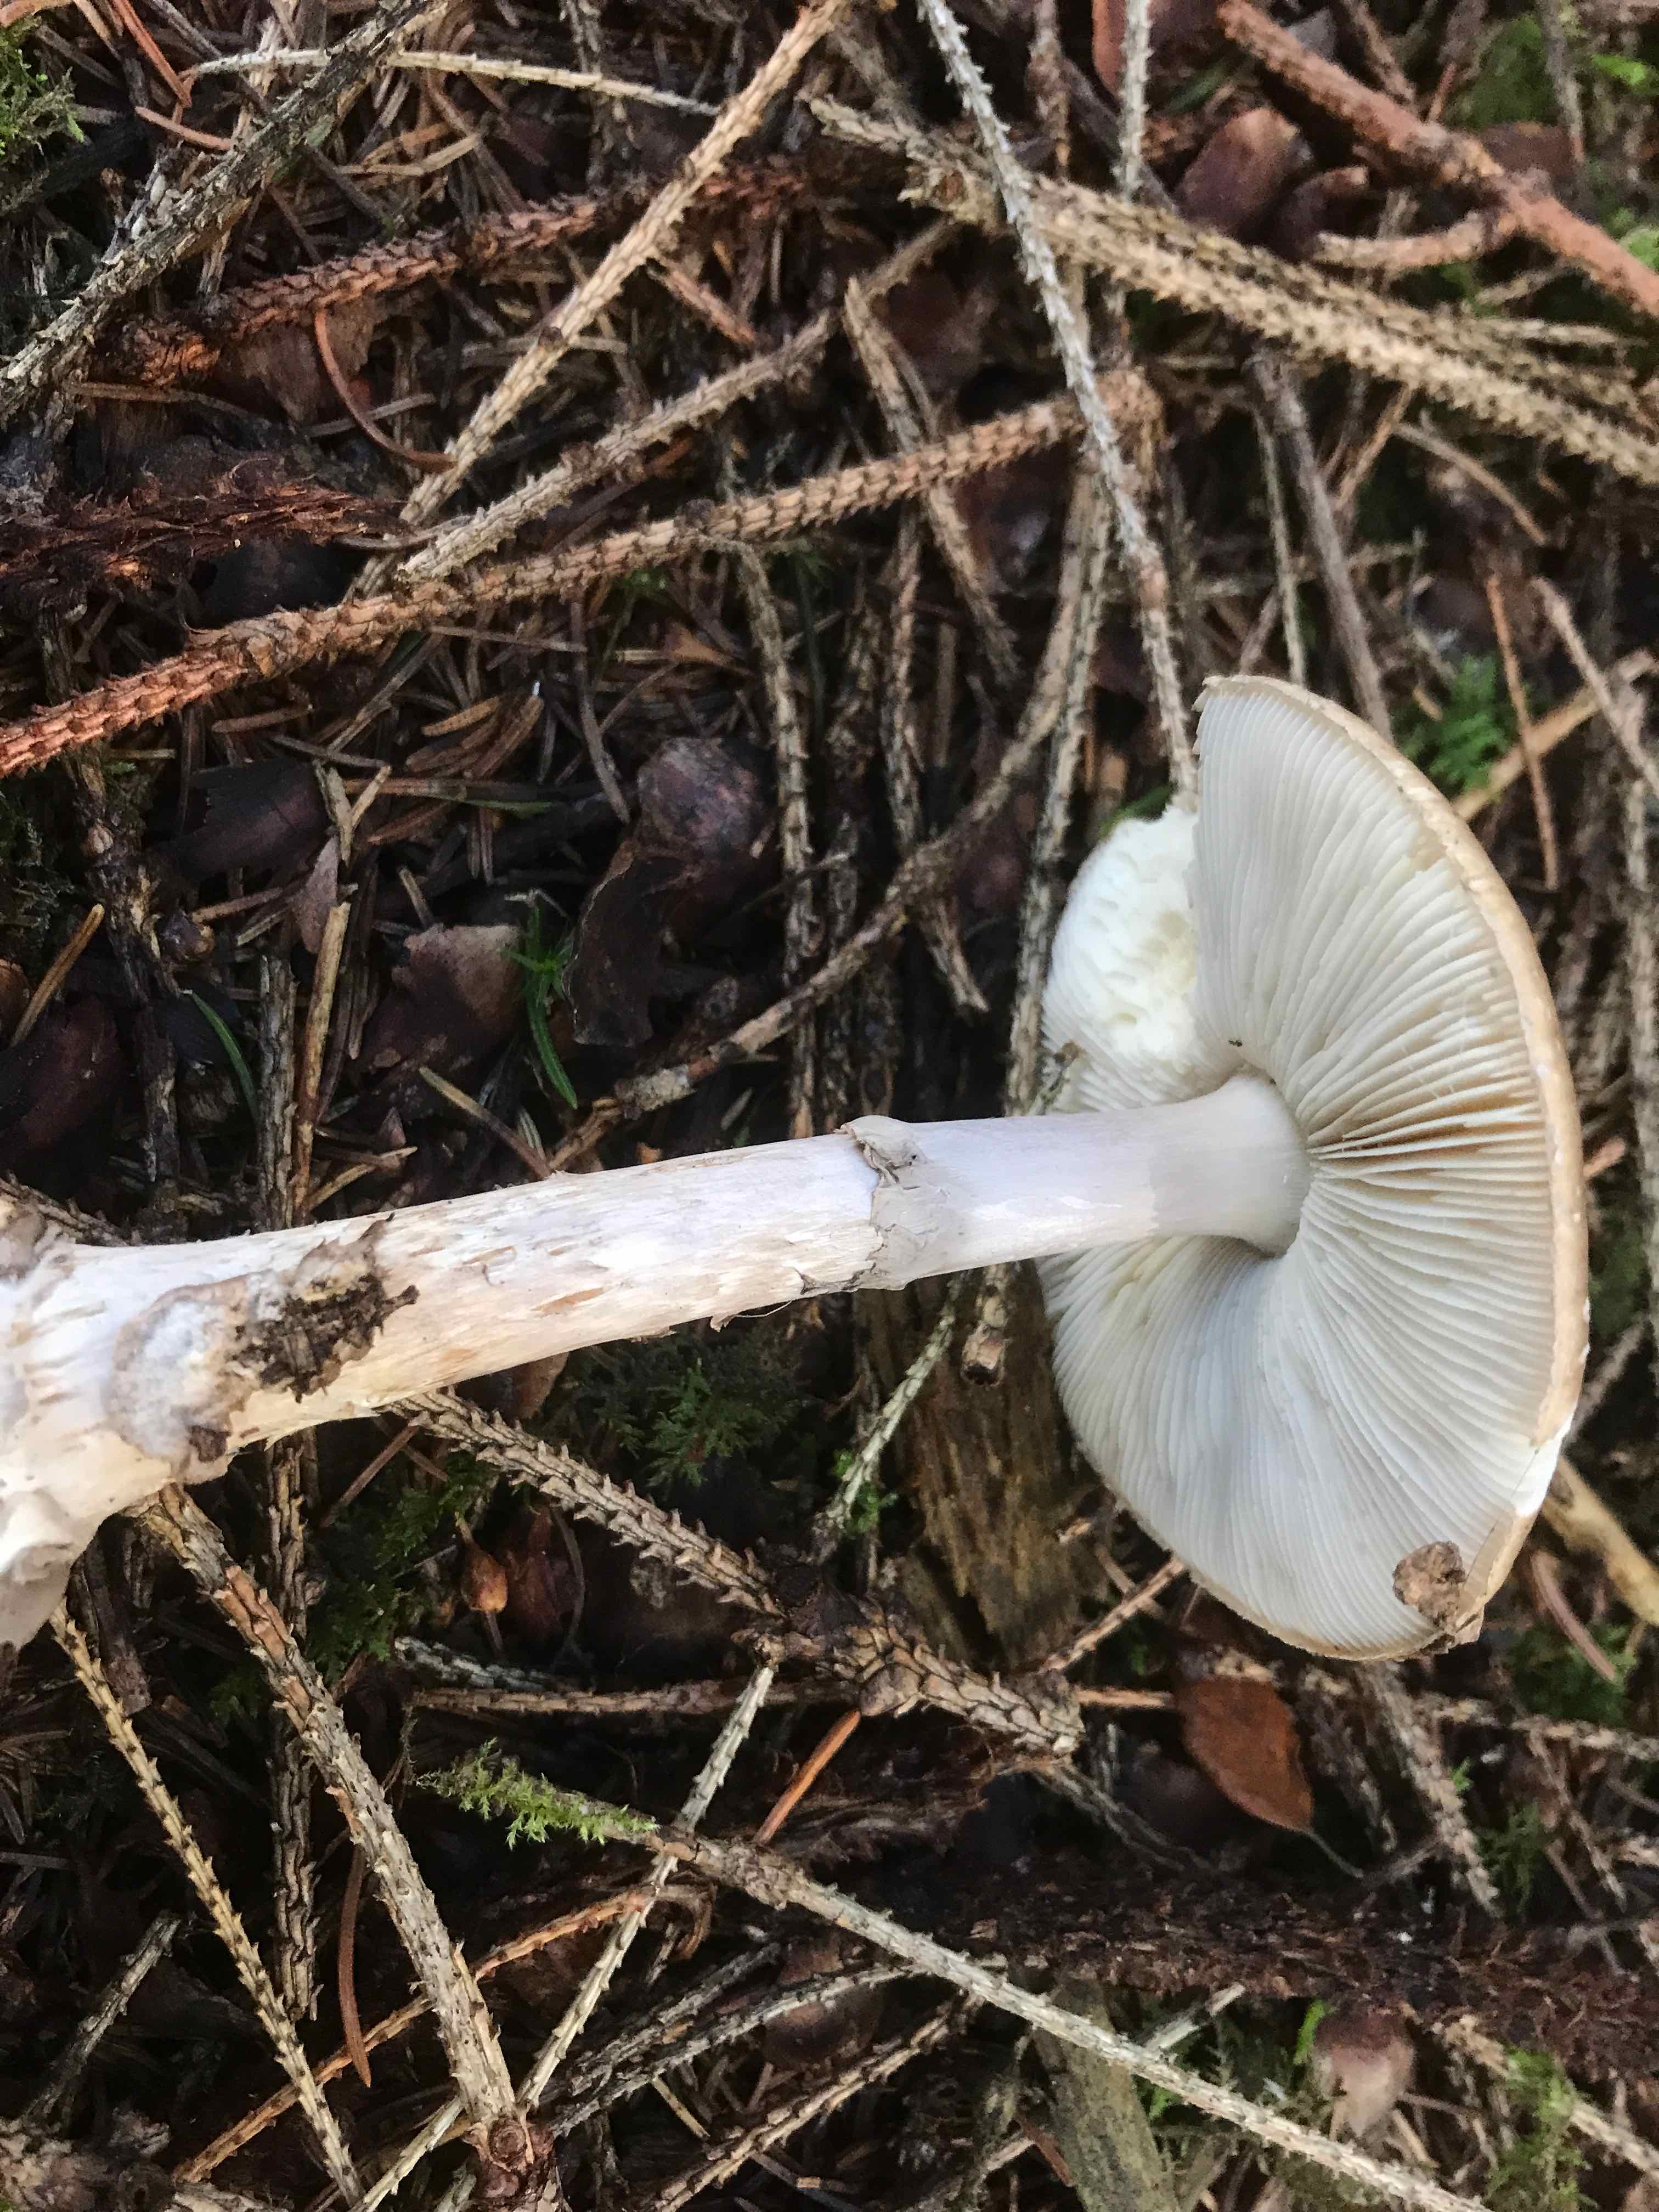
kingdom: Fungi
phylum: Basidiomycota
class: Agaricomycetes
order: Agaricales
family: Amanitaceae
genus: Amanita
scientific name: Amanita porphyria
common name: porfyr-fluesvamp
